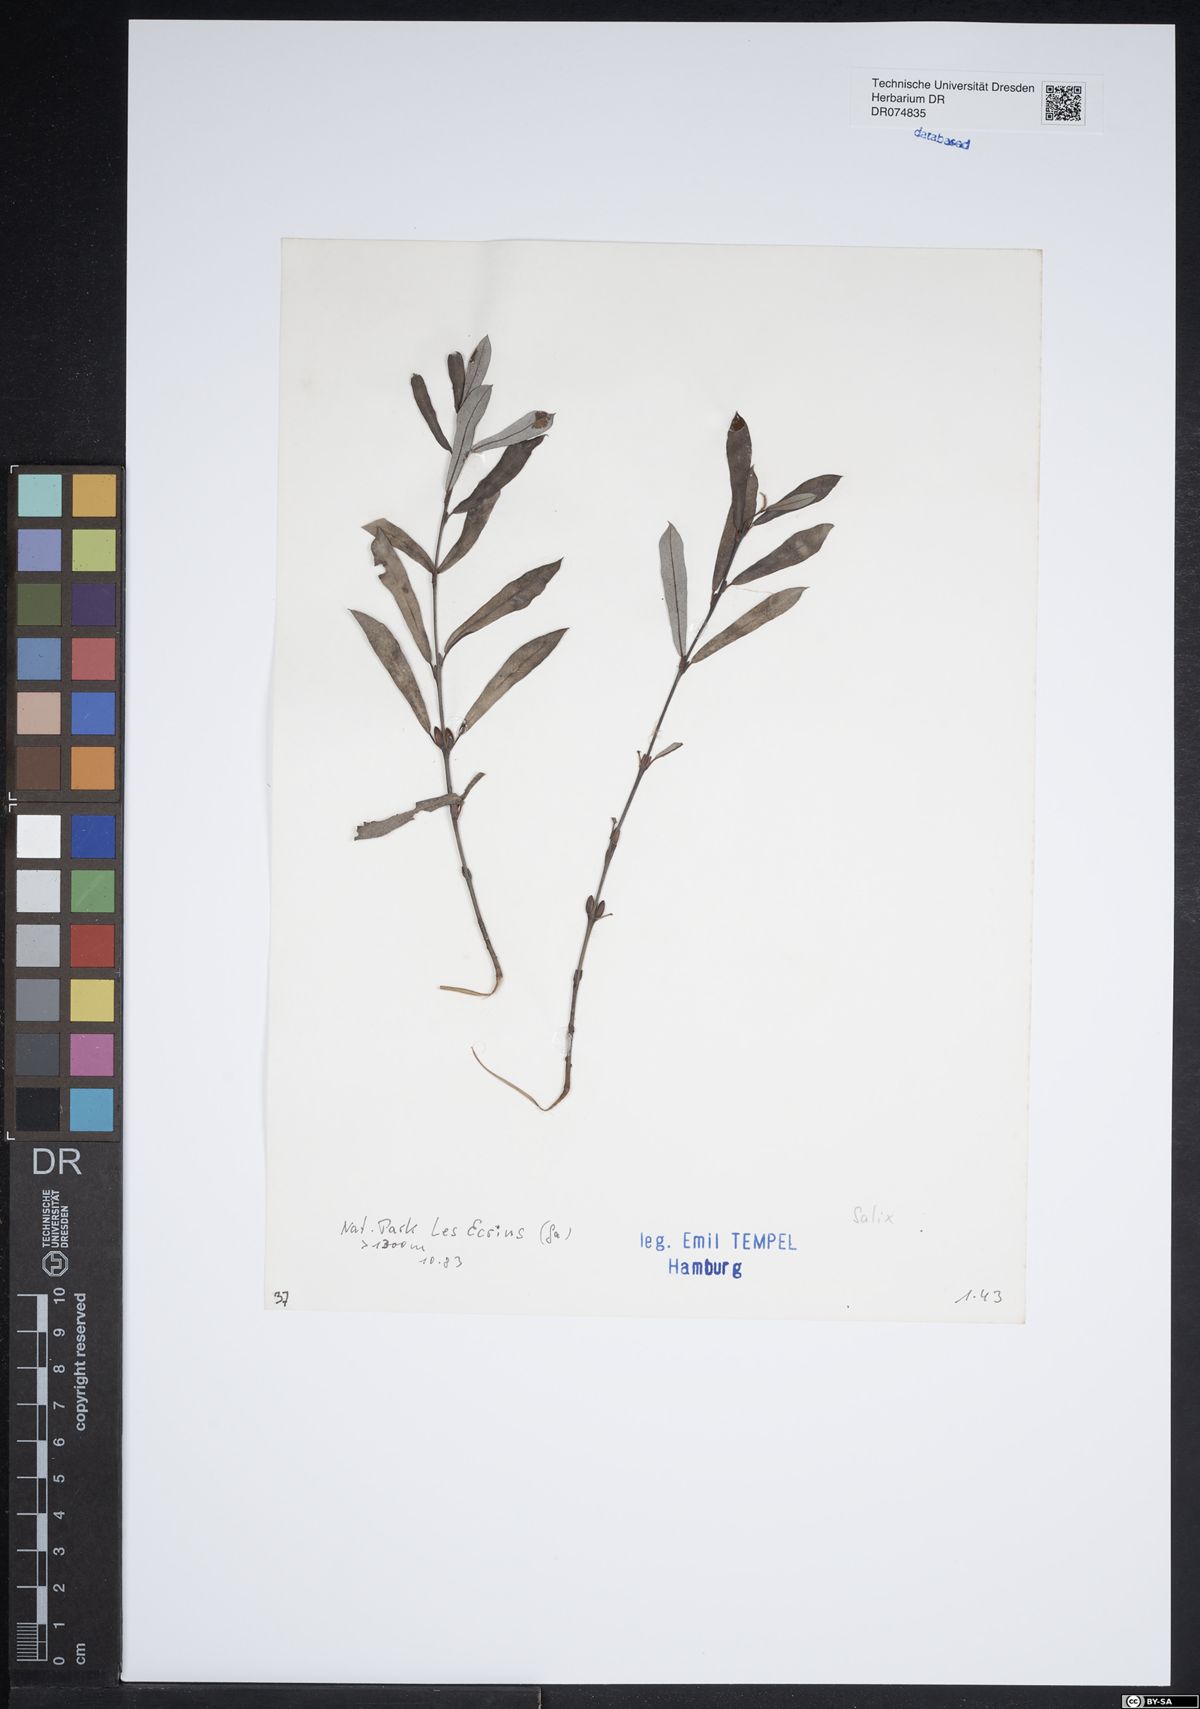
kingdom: Plantae
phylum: Tracheophyta
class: Magnoliopsida
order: Malpighiales
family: Salicaceae
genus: Salix
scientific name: Salix
